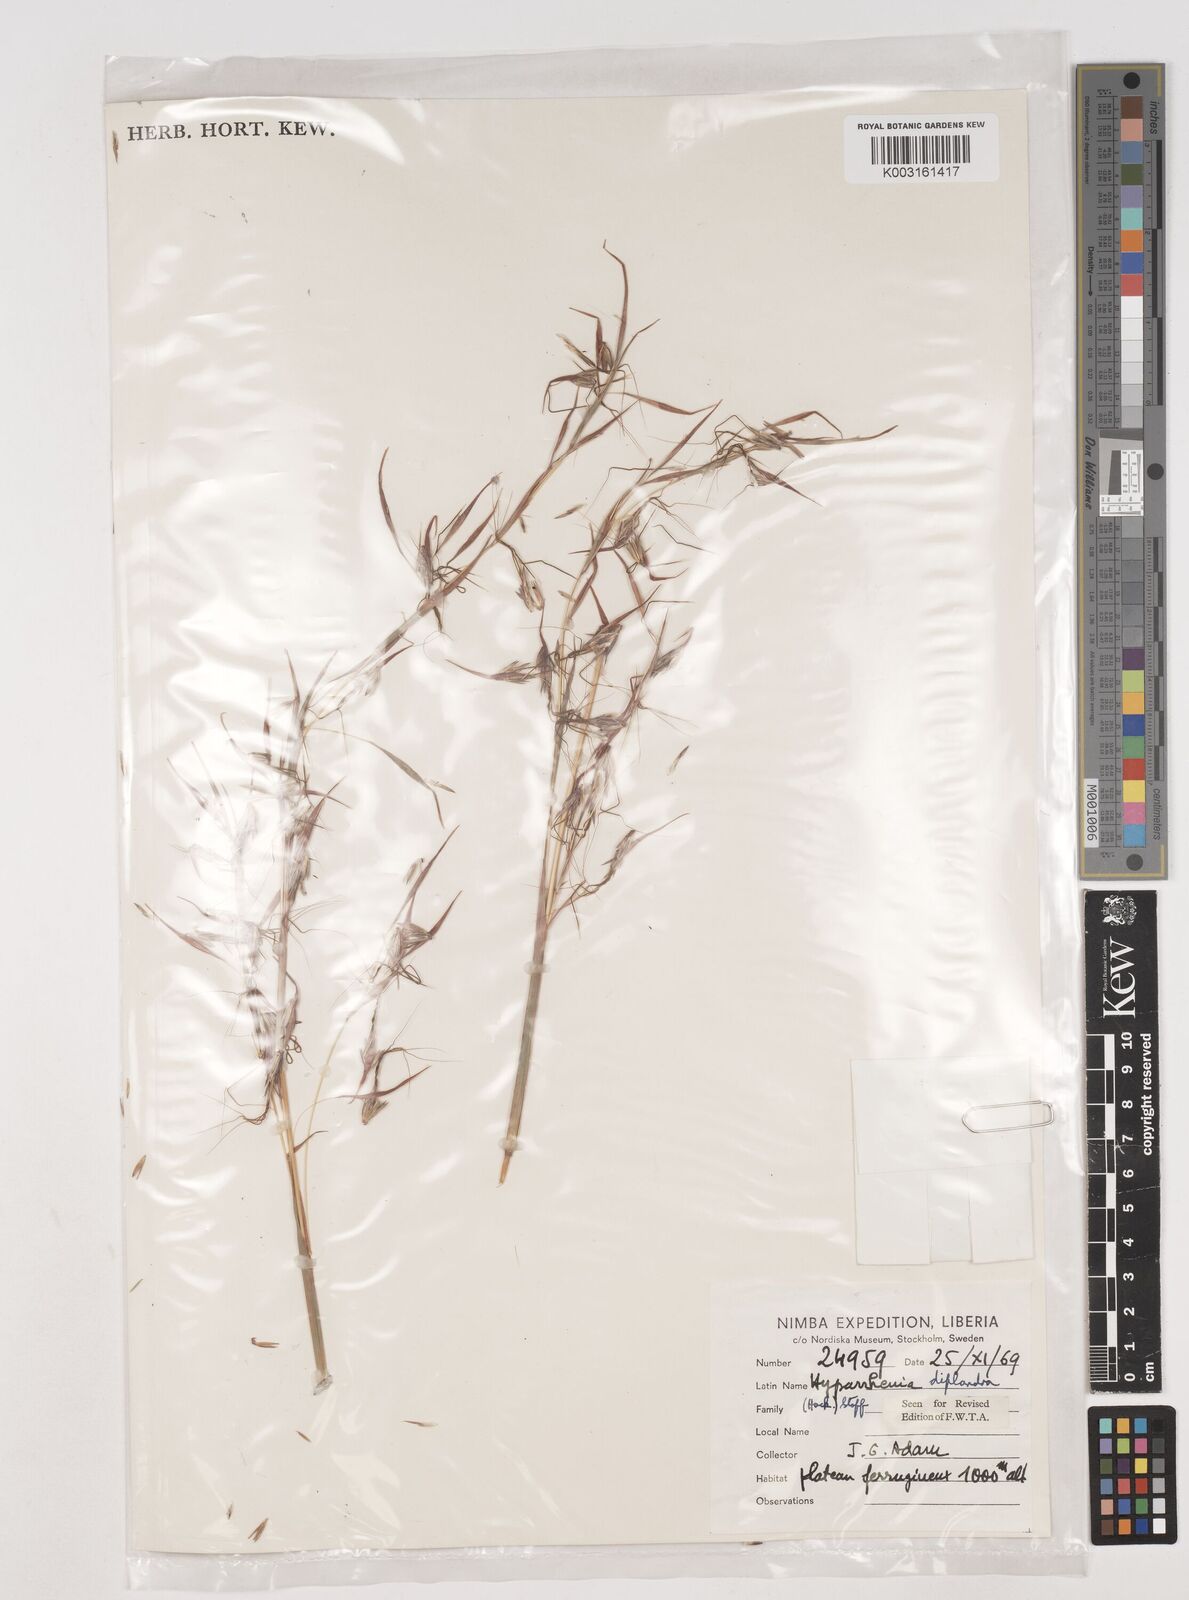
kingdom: Plantae
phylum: Tracheophyta
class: Liliopsida
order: Poales
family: Poaceae
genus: Hyparrhenia
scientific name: Hyparrhenia diplandra
